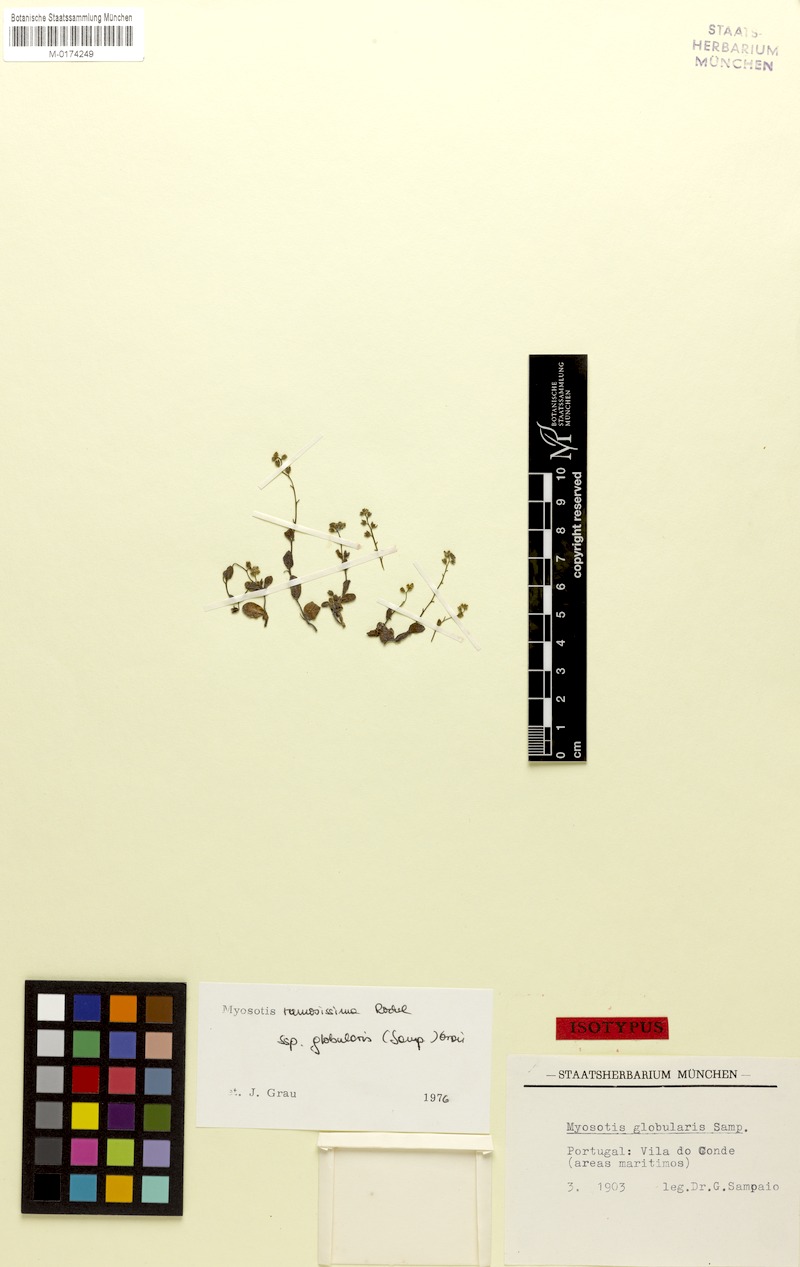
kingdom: Plantae
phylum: Tracheophyta
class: Magnoliopsida
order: Boraginales
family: Boraginaceae
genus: Myosotis
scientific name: Myosotis ramosissima
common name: Early forget-me-not
